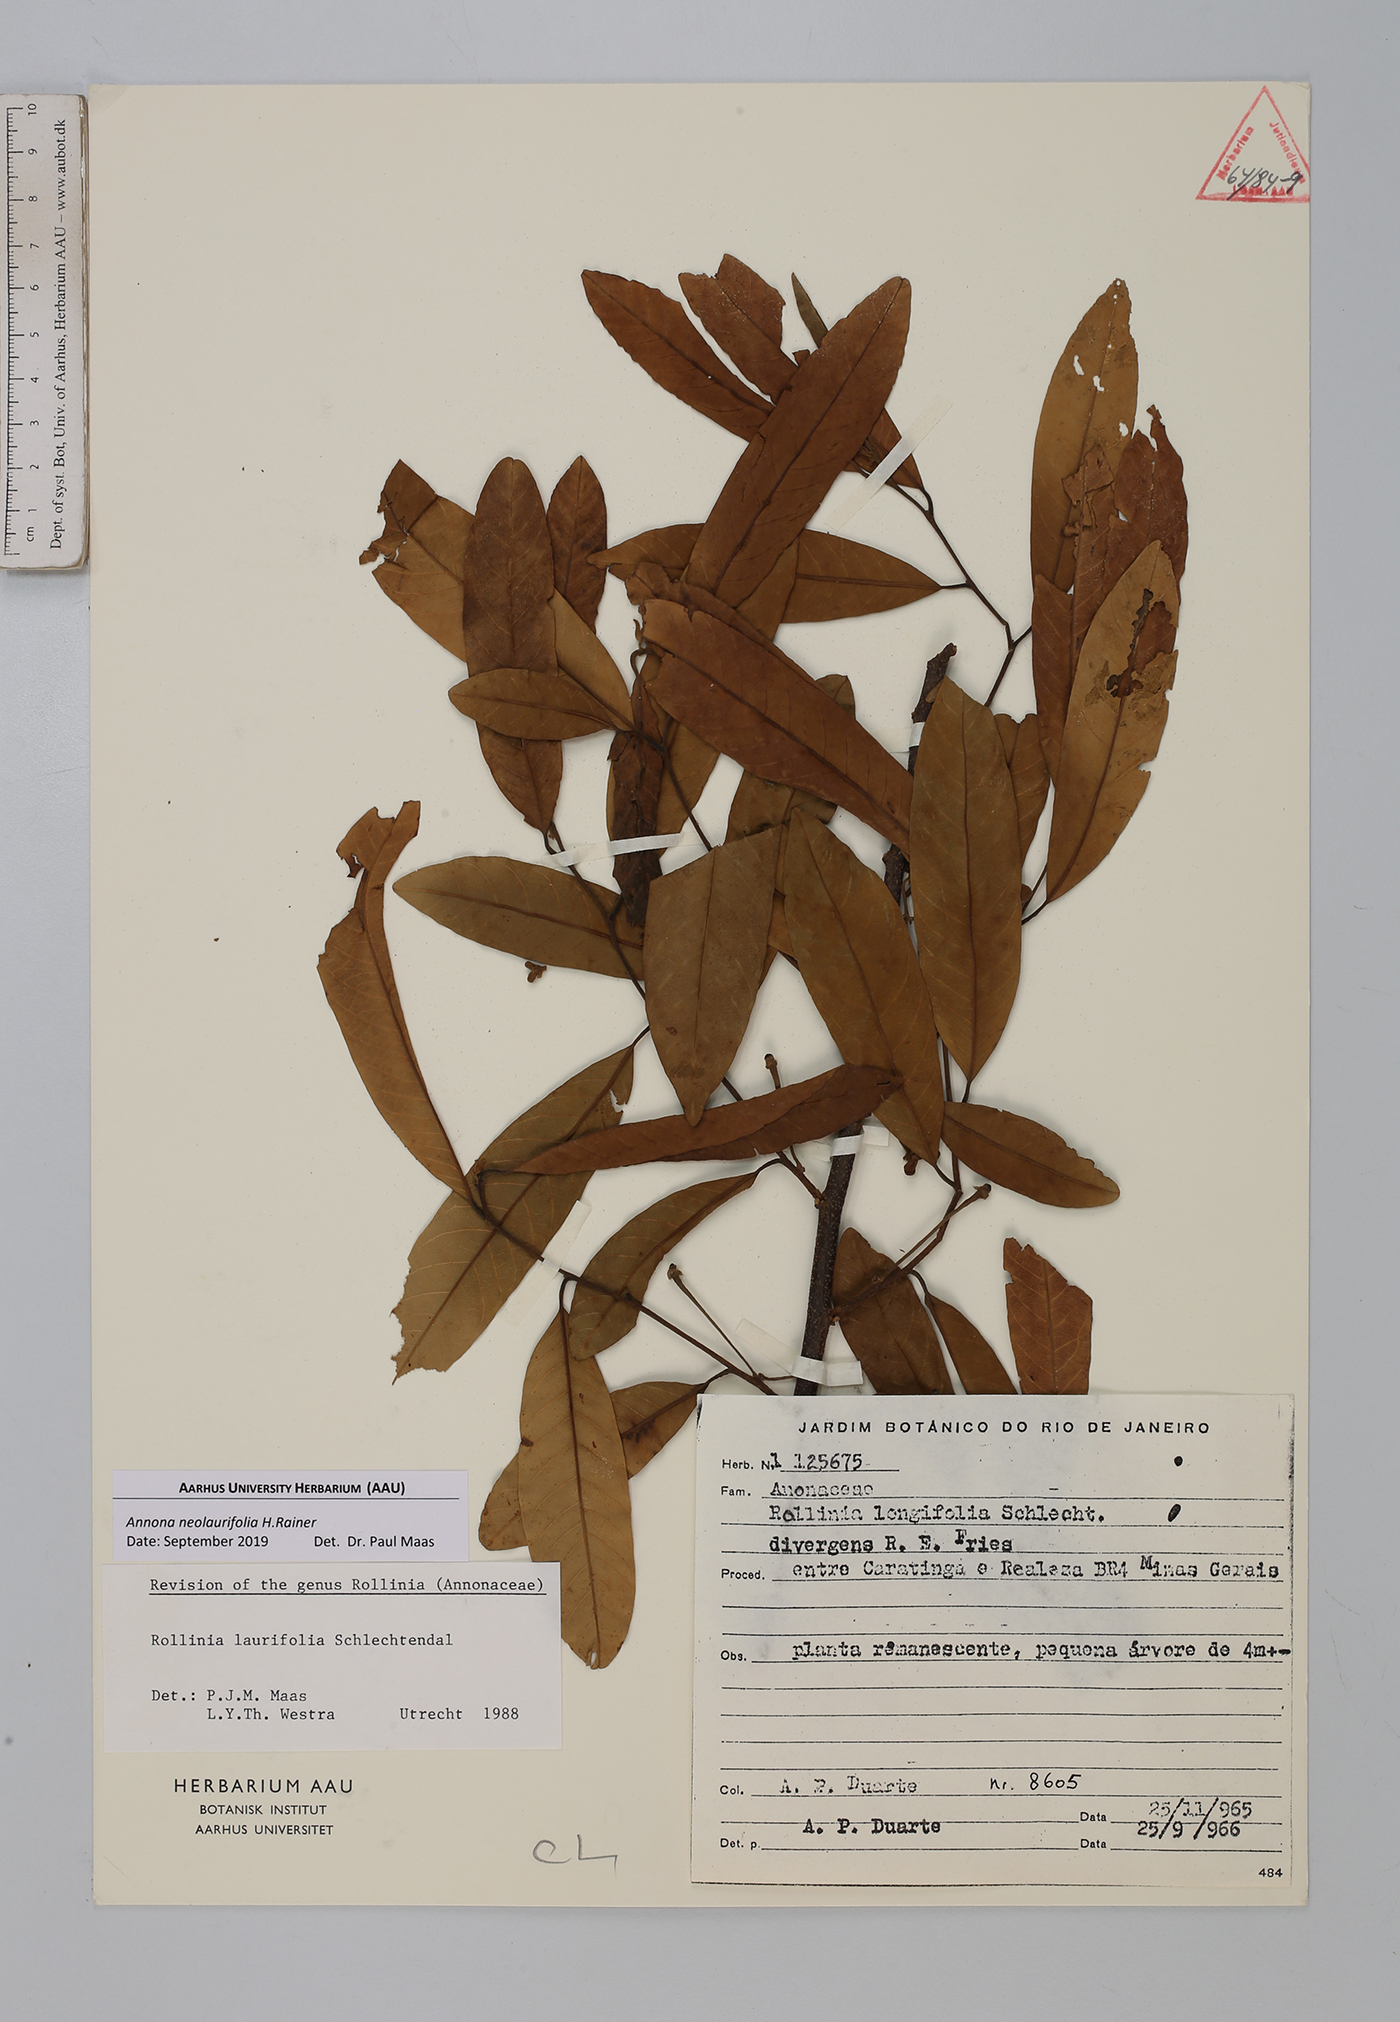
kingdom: Plantae
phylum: Tracheophyta
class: Magnoliopsida
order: Magnoliales
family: Annonaceae
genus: Annona
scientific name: Annona neolaurifolia
